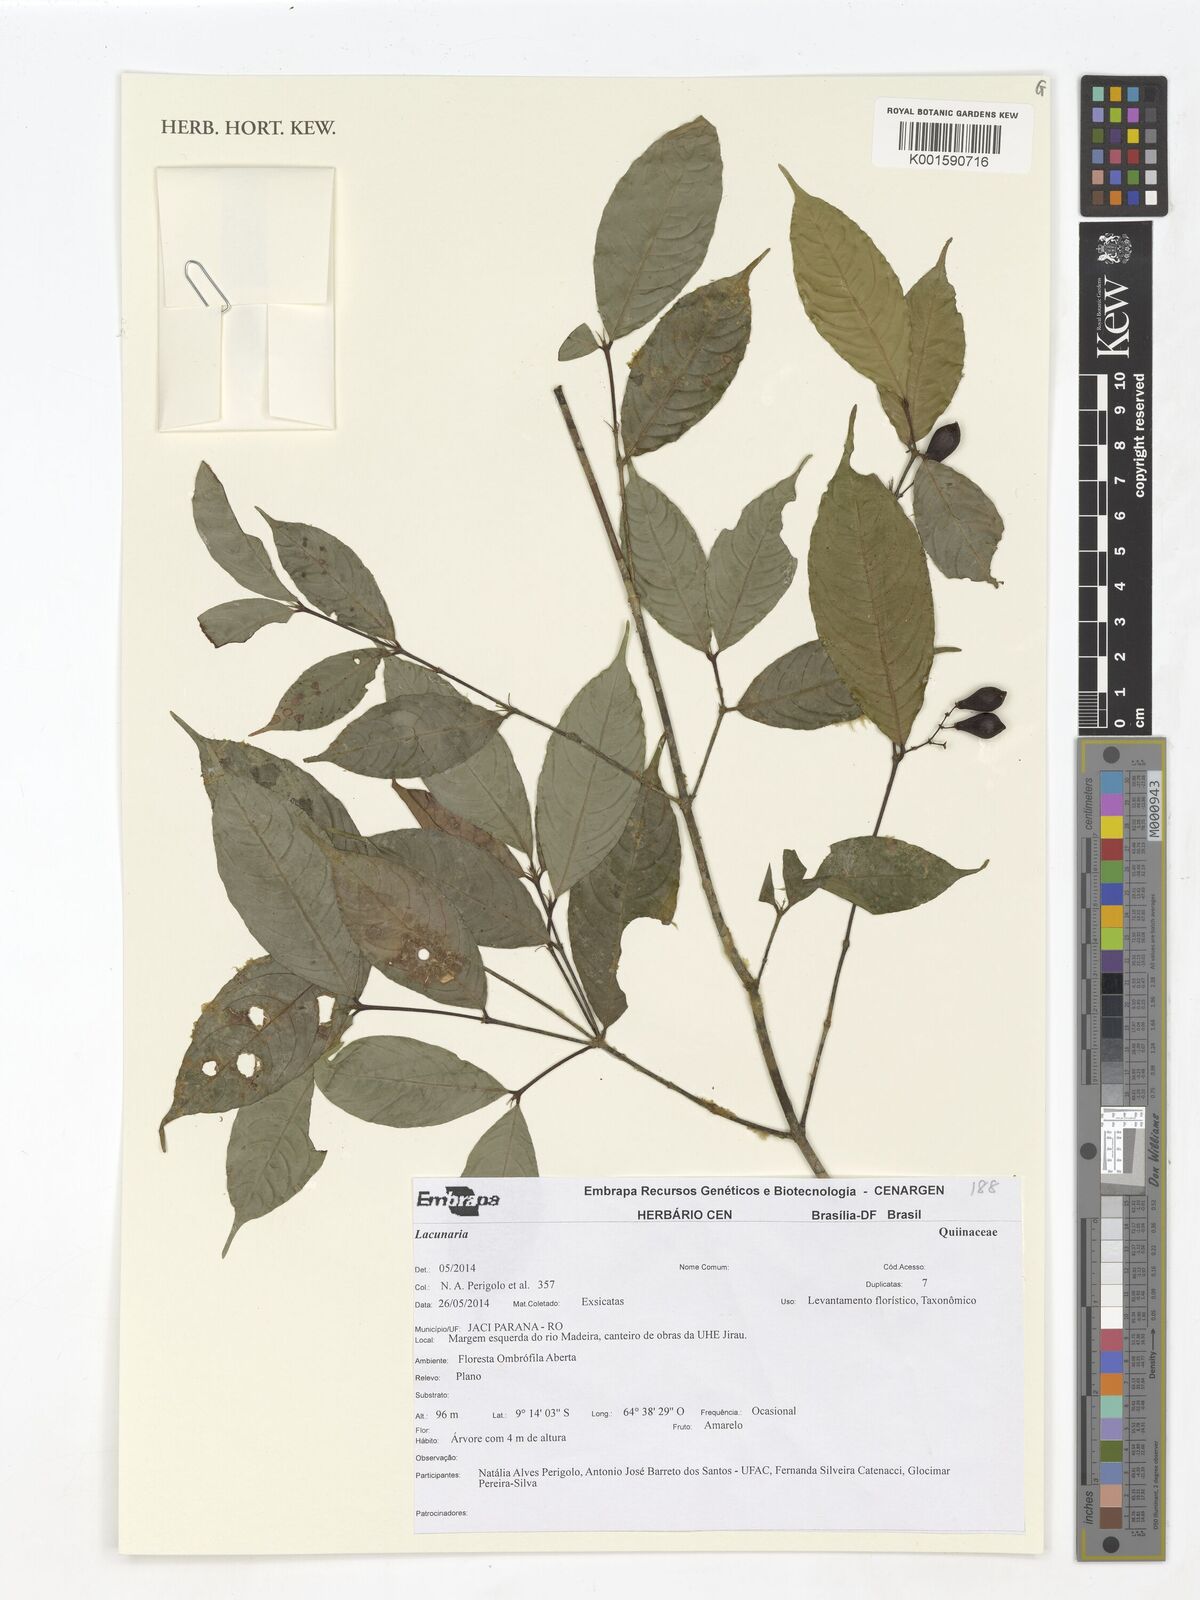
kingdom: Plantae
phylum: Tracheophyta
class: Magnoliopsida
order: Malpighiales
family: Quiinaceae
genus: Lacunaria
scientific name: Lacunaria
